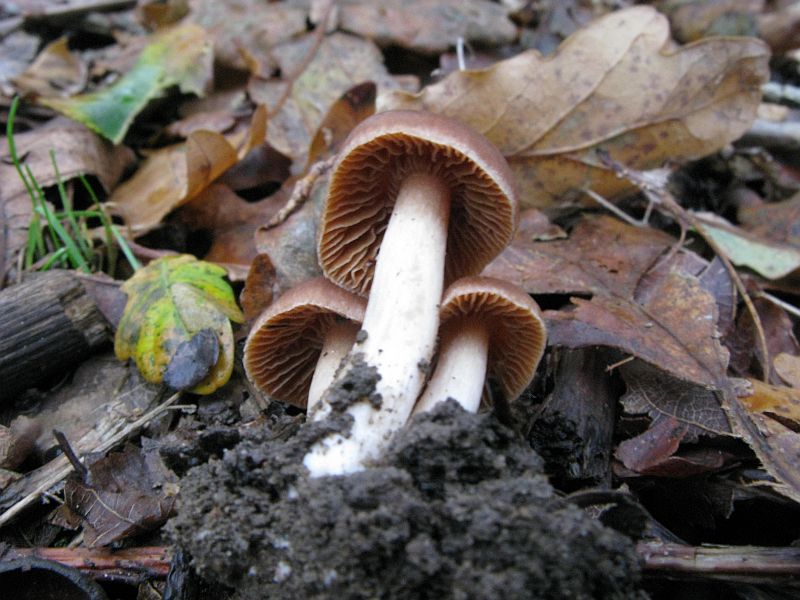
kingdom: Fungi
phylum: Basidiomycota
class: Agaricomycetes
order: Agaricales
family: Cortinariaceae
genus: Cortinarius
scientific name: Cortinarius
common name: jod-slørhat
